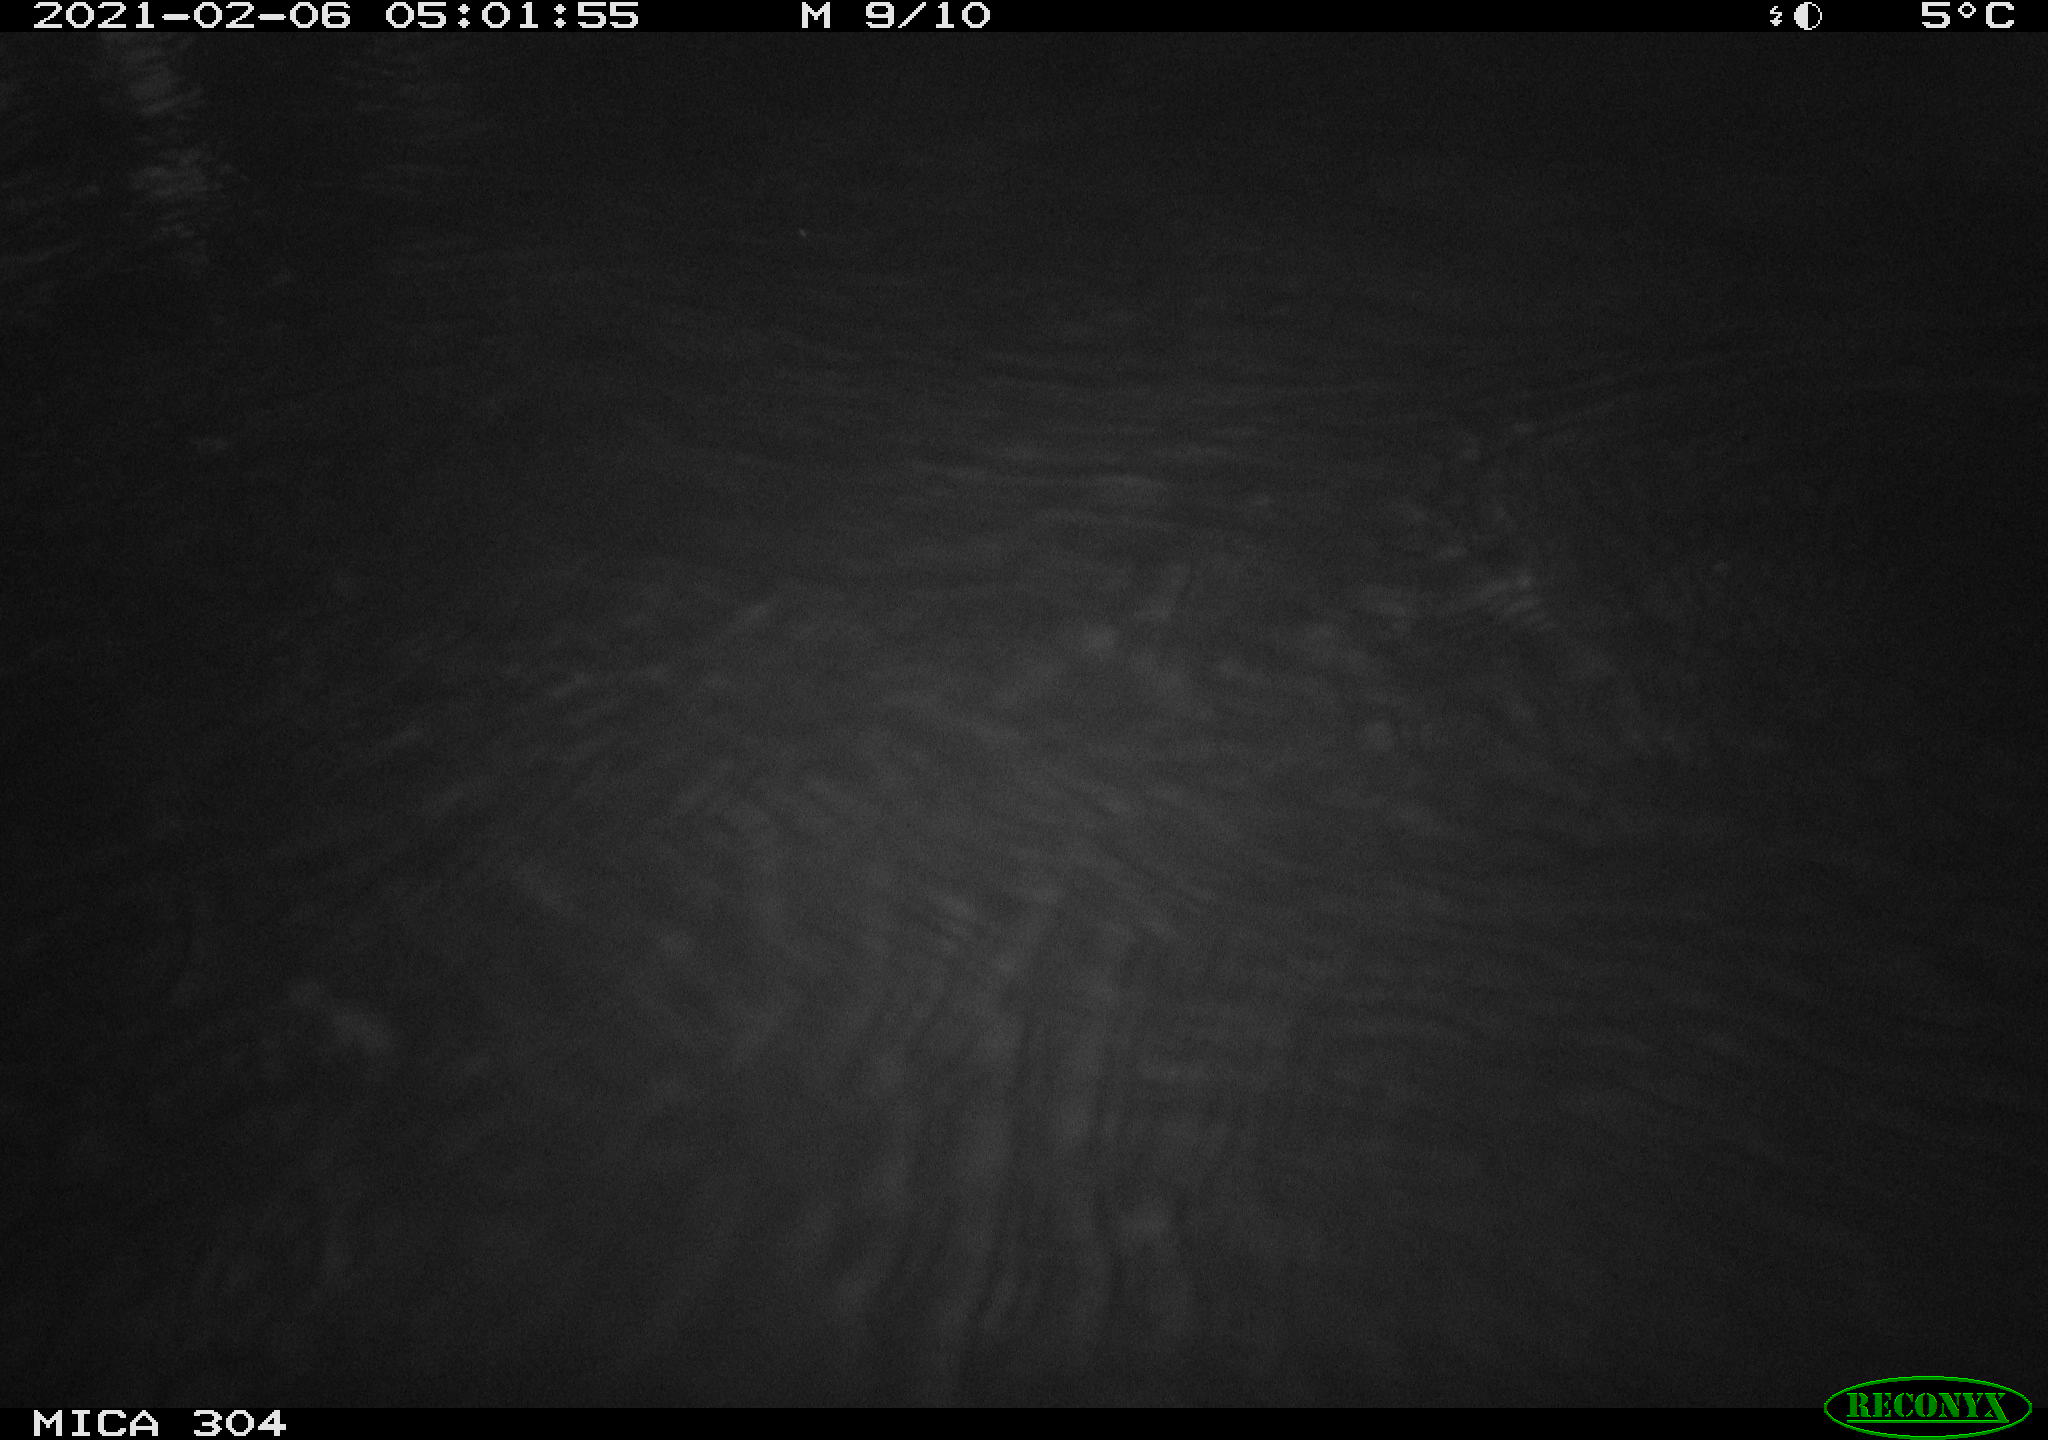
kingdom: Animalia
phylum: Chordata
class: Mammalia
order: Rodentia
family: Cricetidae
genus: Ondatra
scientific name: Ondatra zibethicus
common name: Muskrat
